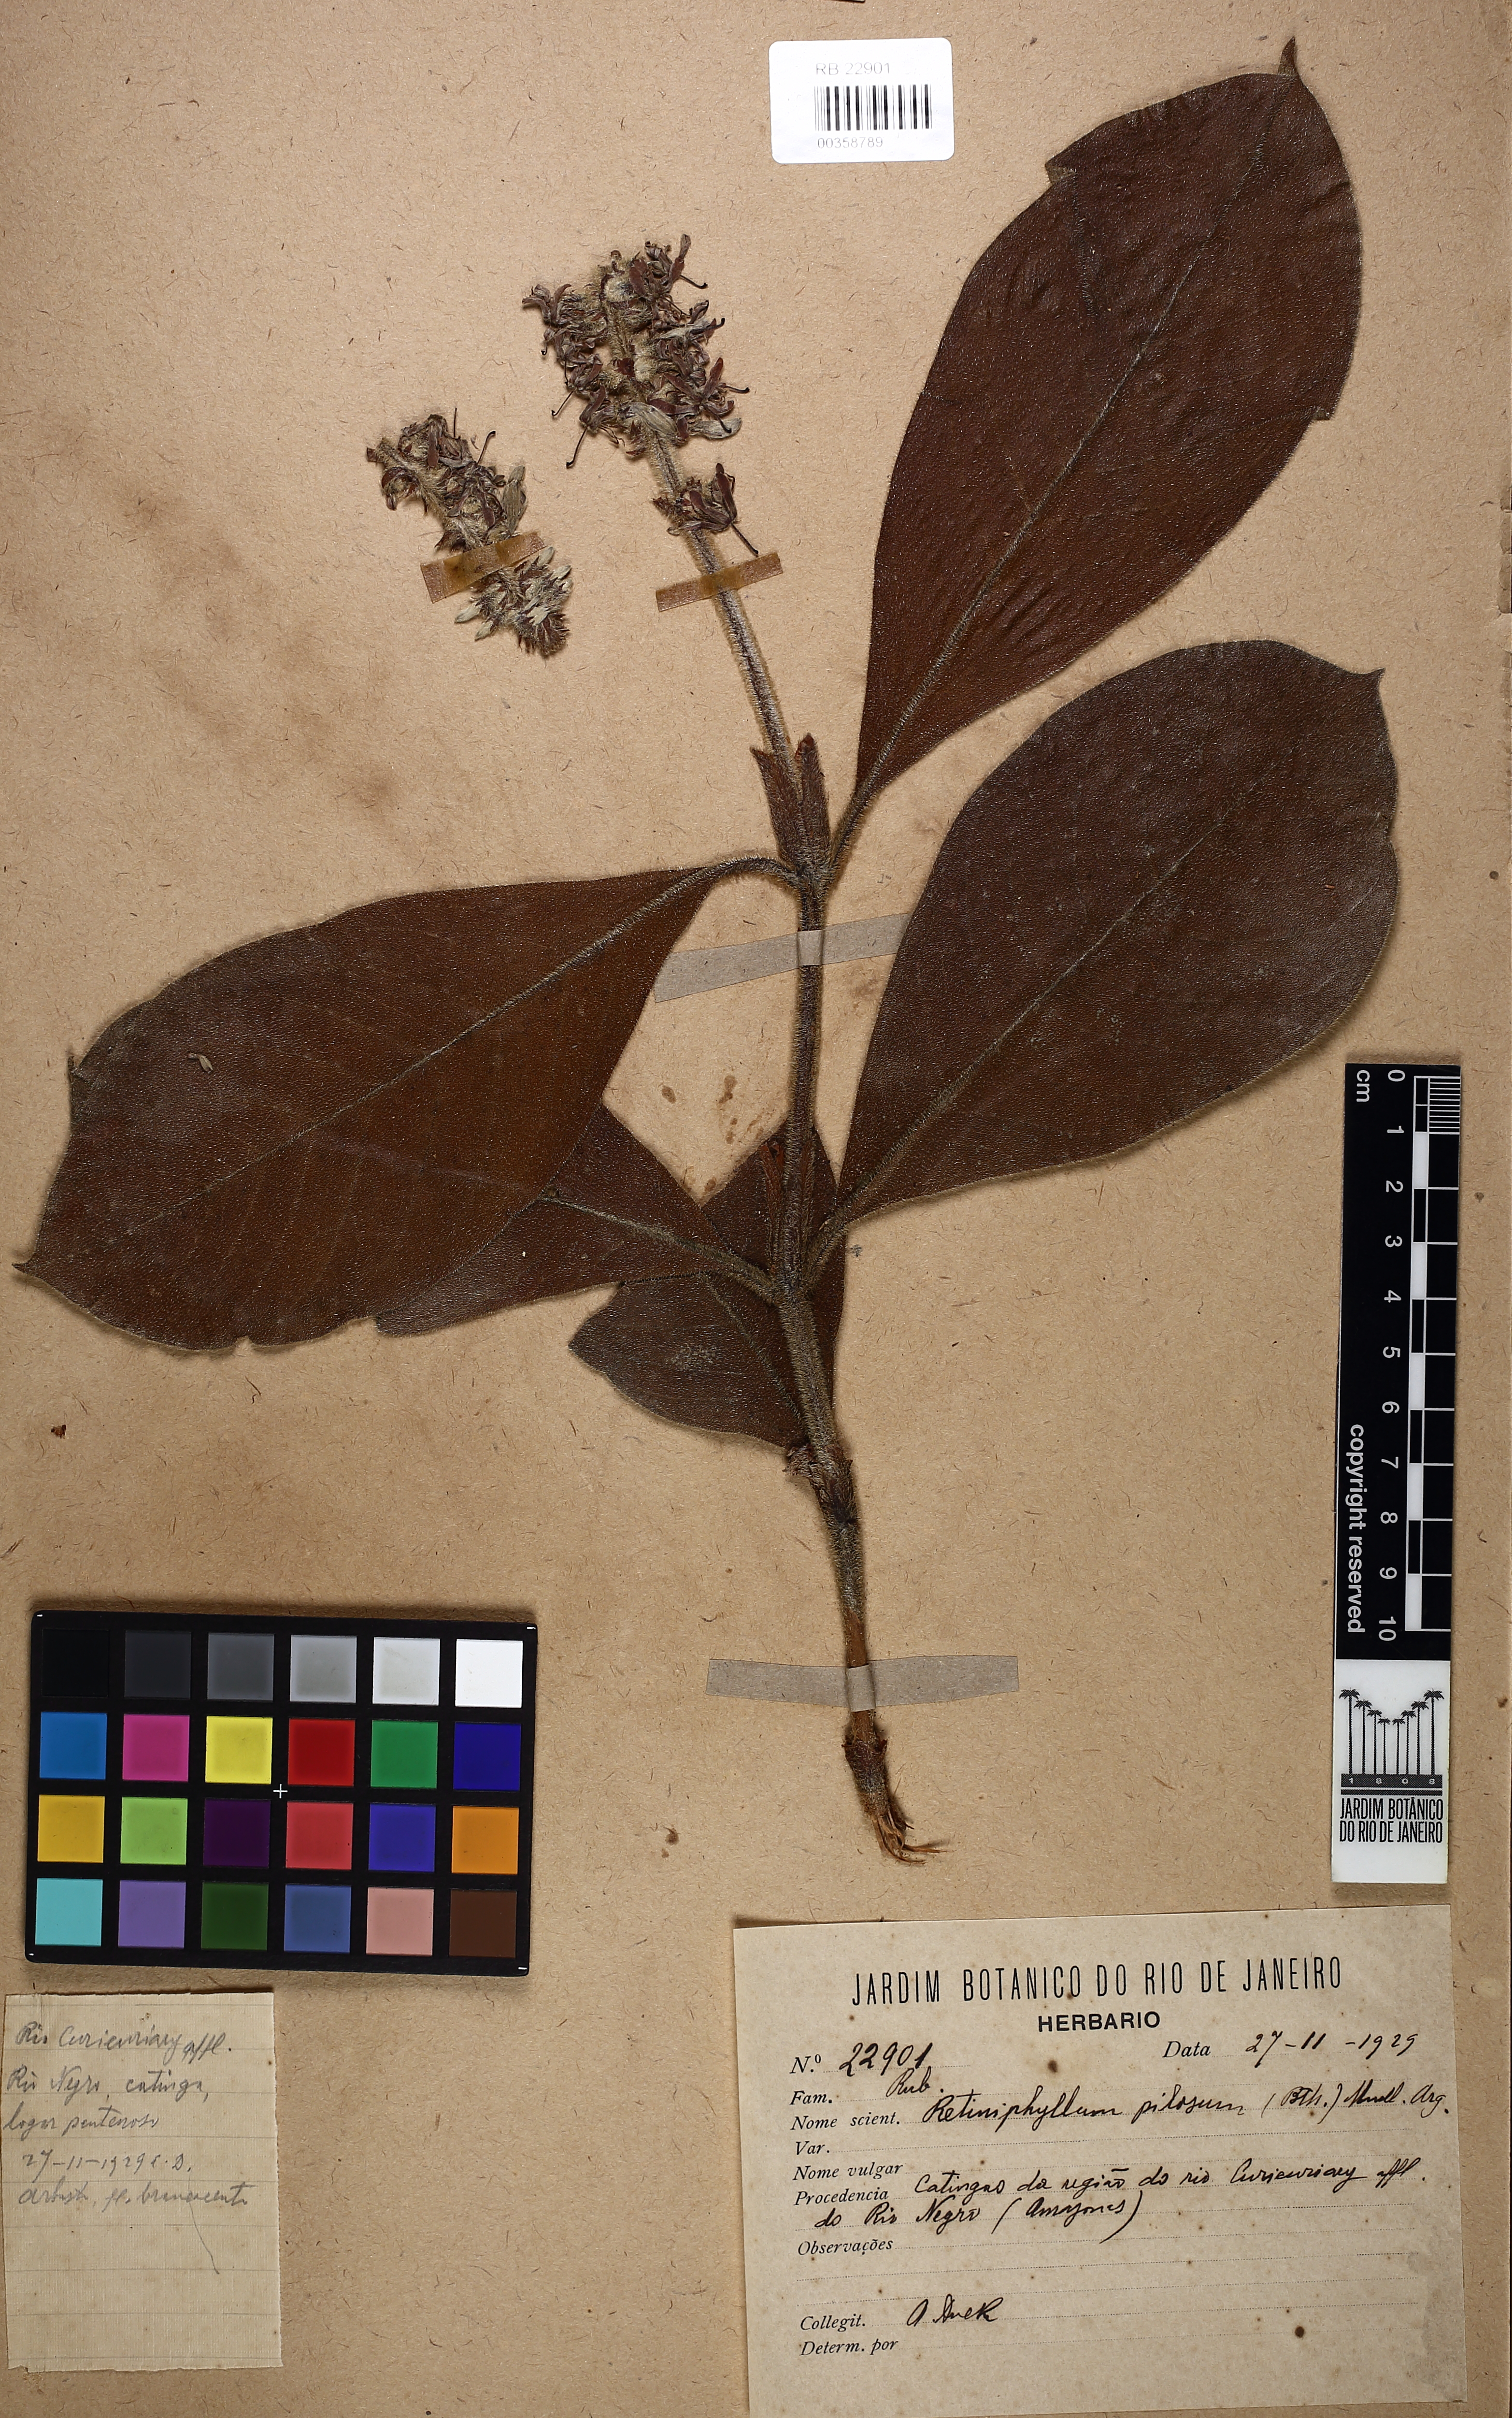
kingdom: Plantae
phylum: Tracheophyta
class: Magnoliopsida
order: Gentianales
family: Rubiaceae
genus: Retiniphyllum
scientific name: Retiniphyllum pilosum
